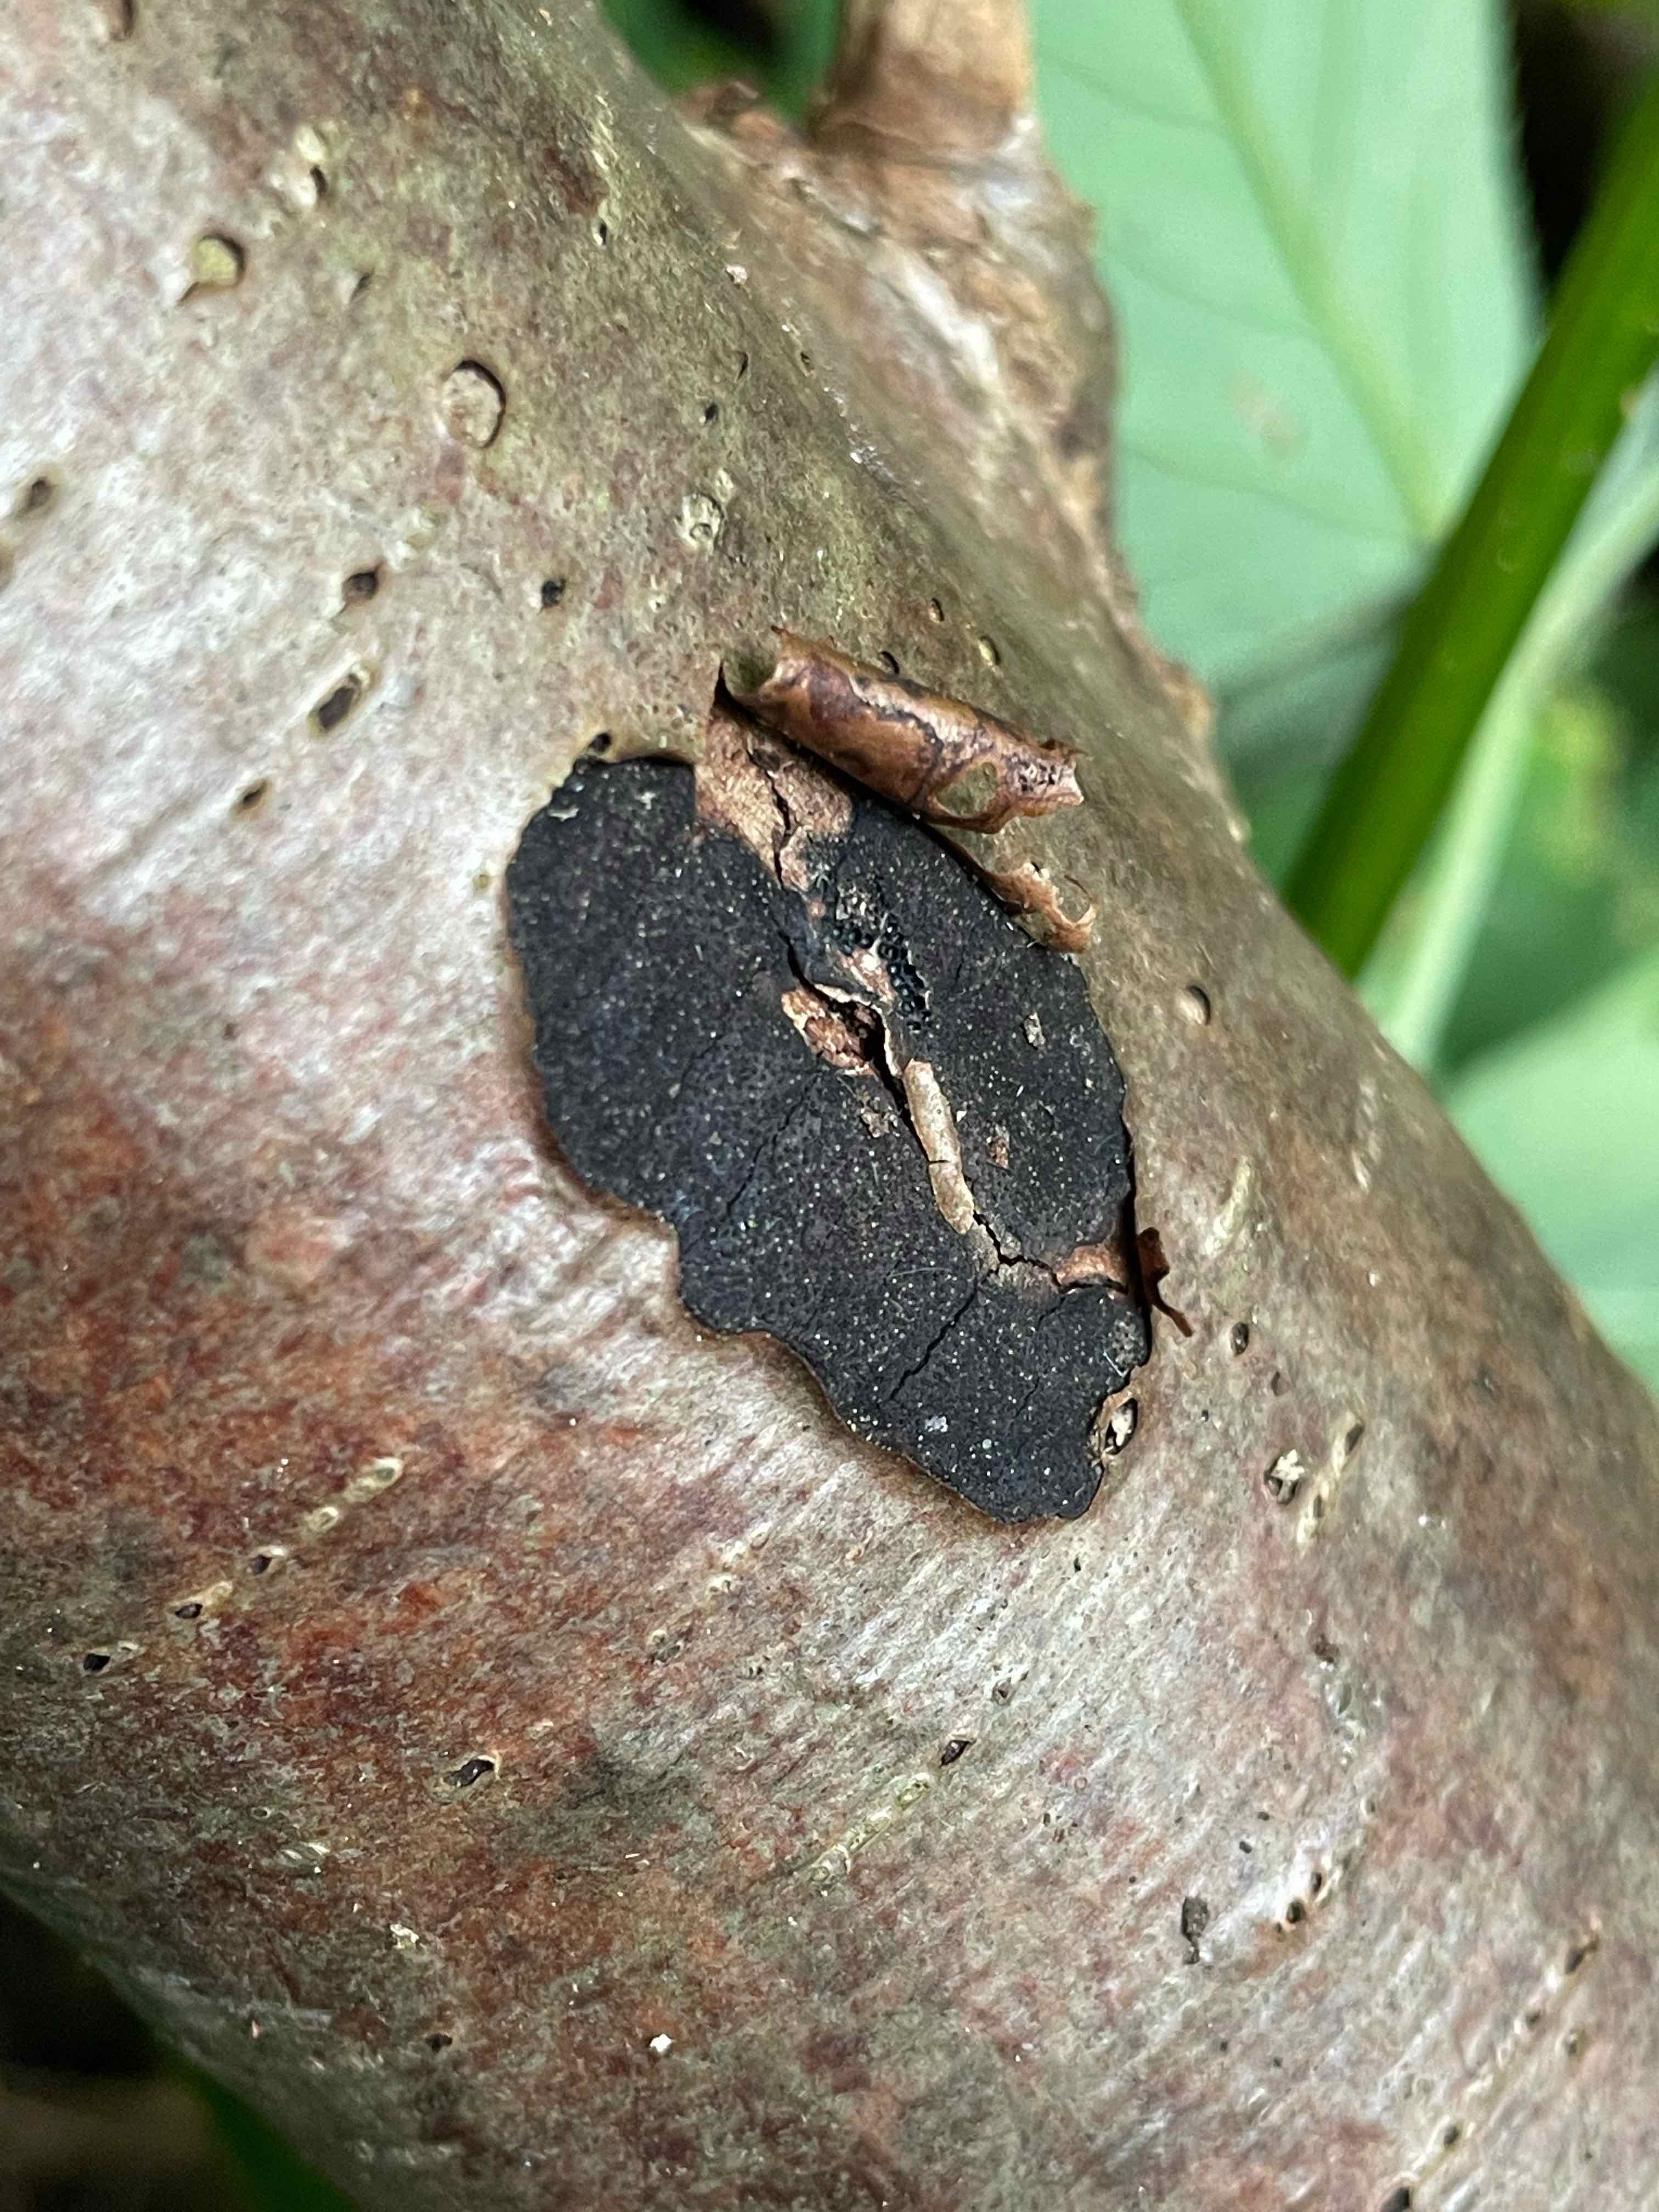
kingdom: Fungi
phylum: Ascomycota
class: Sordariomycetes
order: Xylariales
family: Diatrypaceae
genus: Diatrype
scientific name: Diatrype
